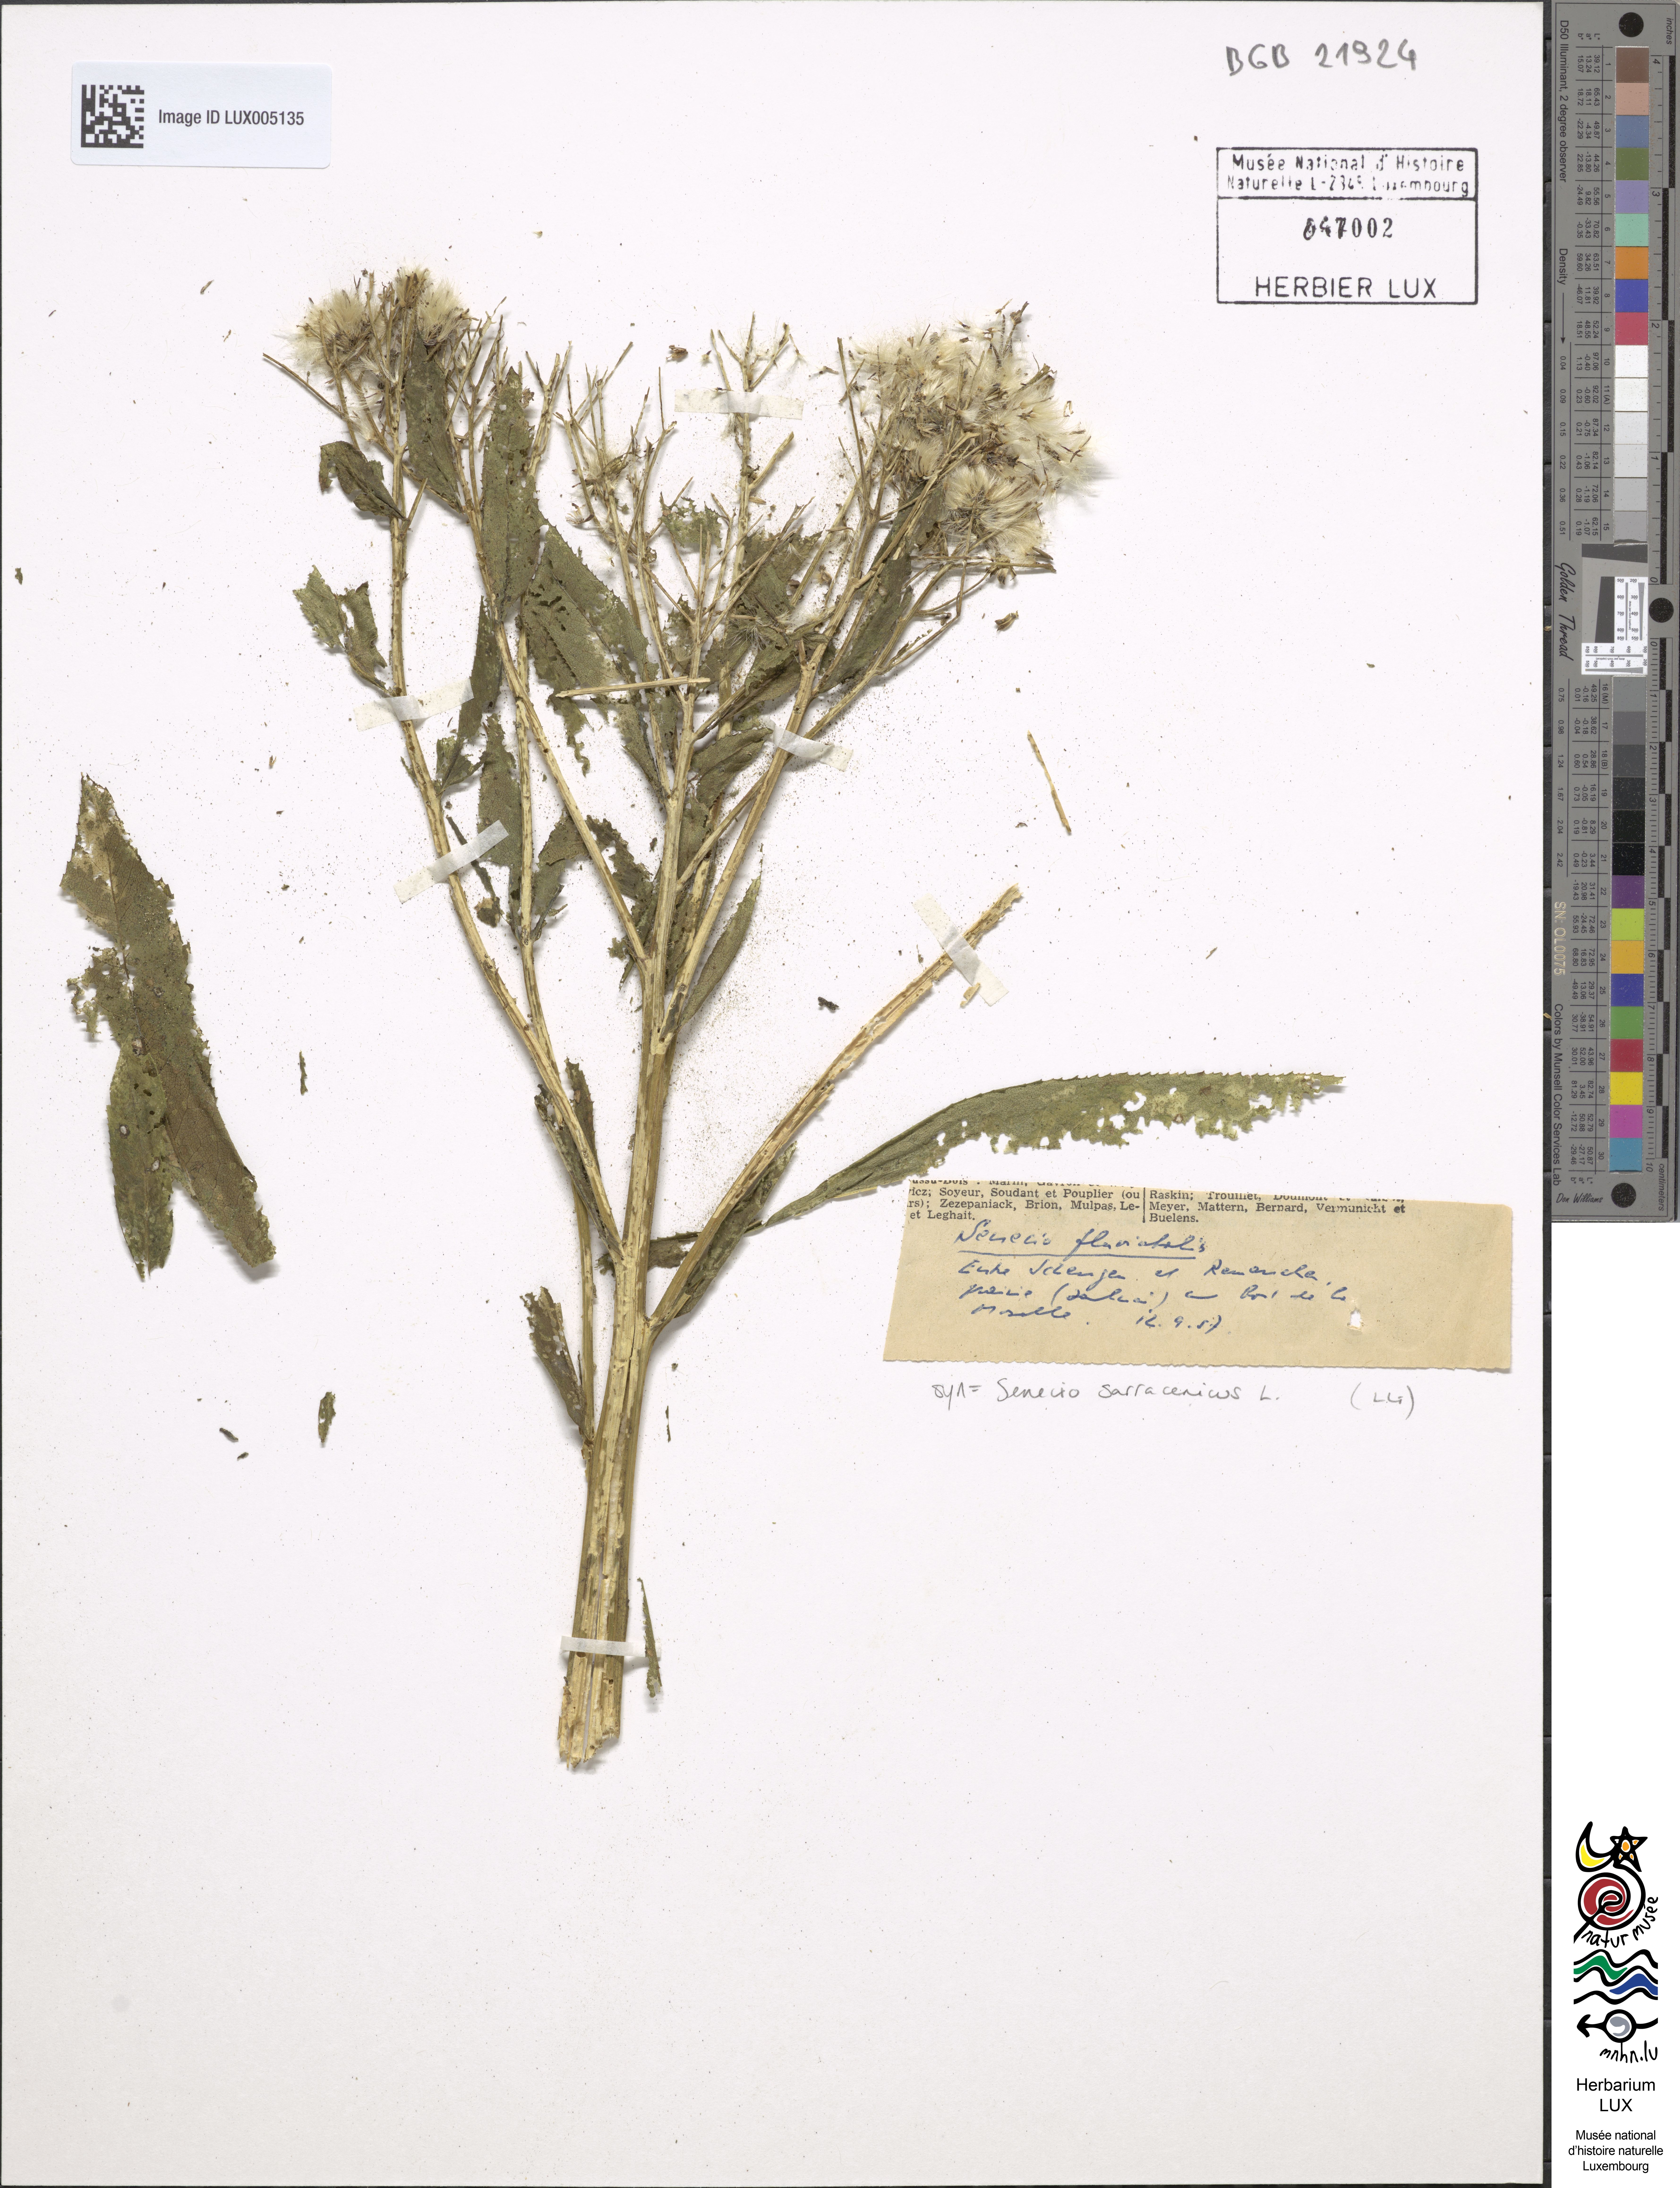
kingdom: Plantae
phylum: Tracheophyta
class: Magnoliopsida
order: Asterales
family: Asteraceae
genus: Senecio
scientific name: Senecio sarracenicus
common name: Broad-leaved ragwort
